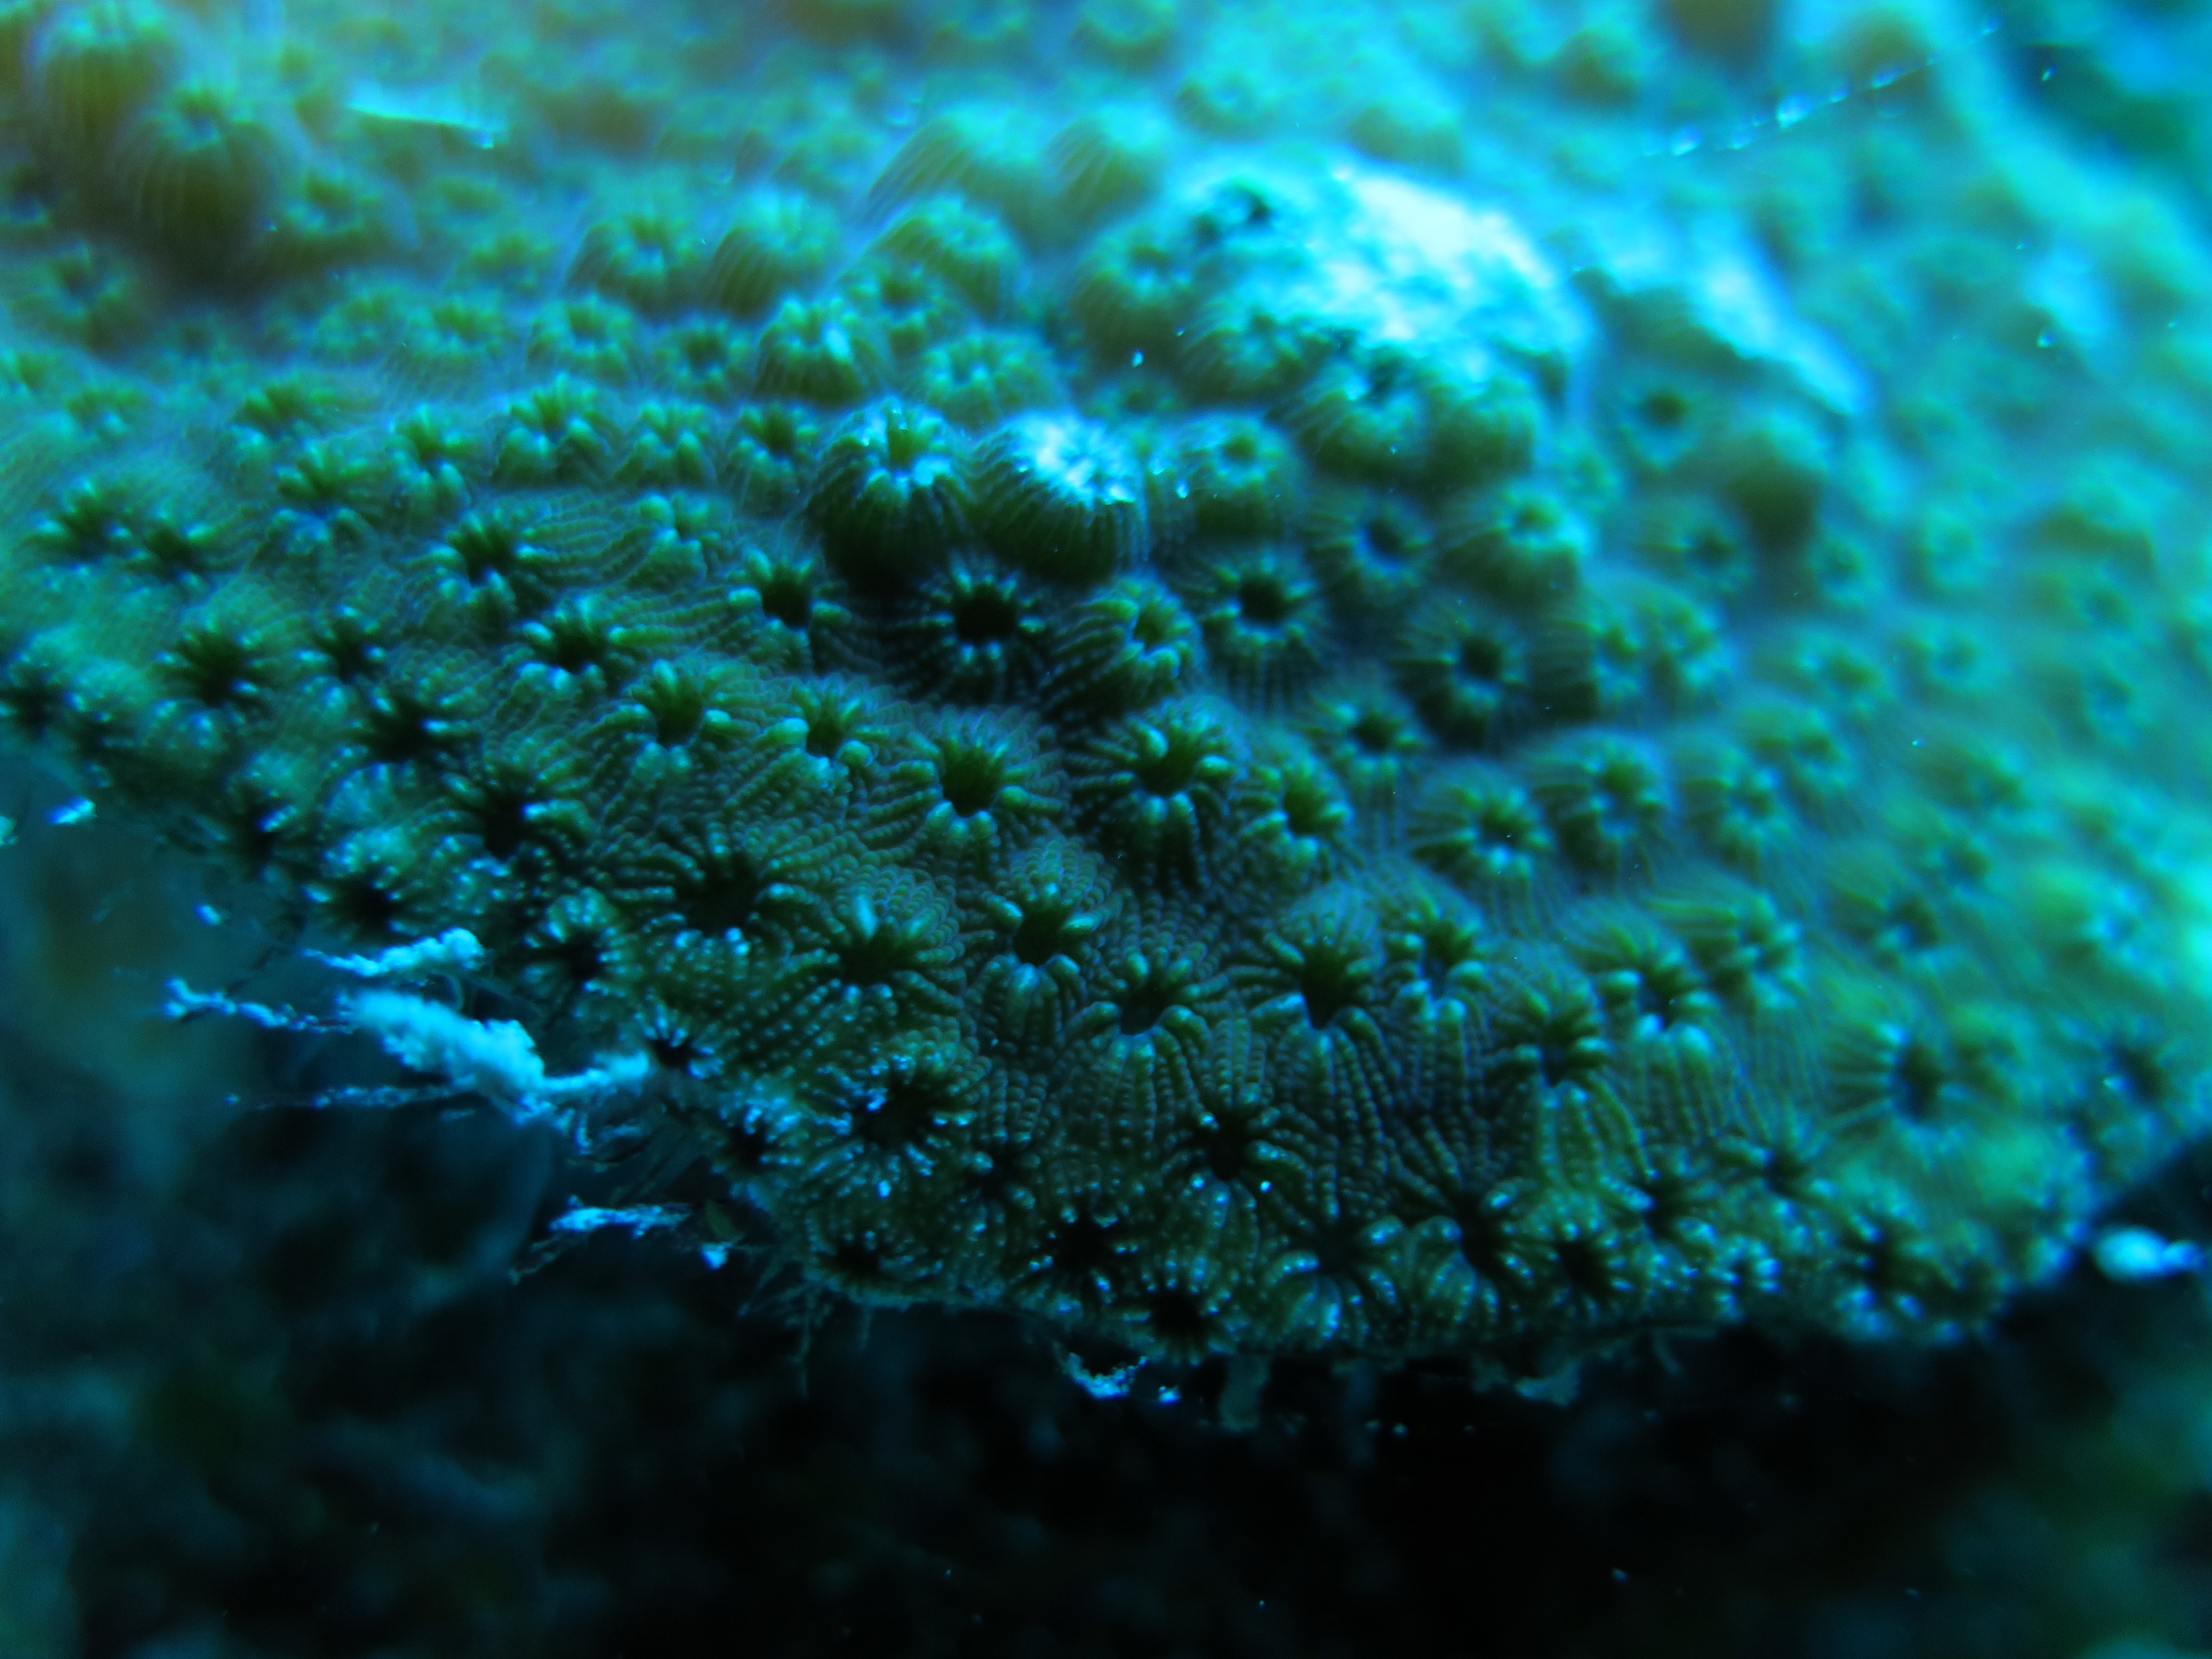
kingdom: Animalia
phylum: Cnidaria
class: Anthozoa
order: Scleractinia
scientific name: Scleractinia
